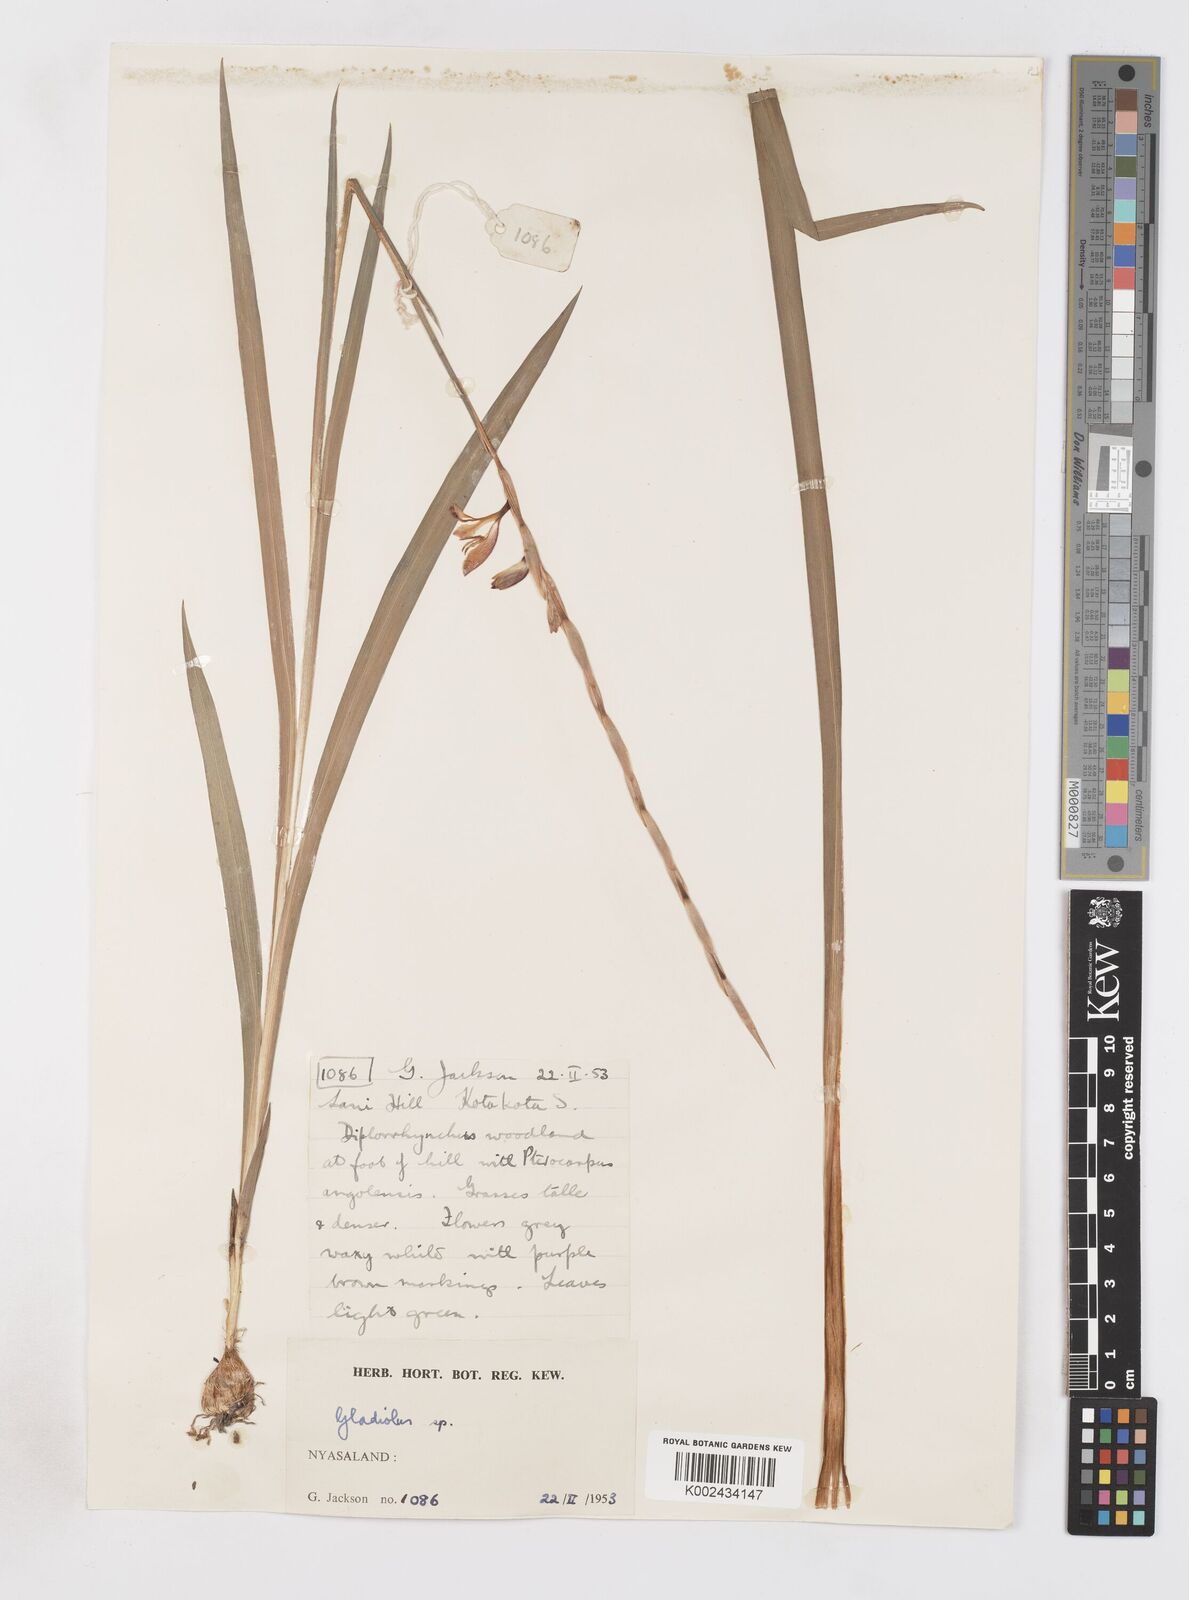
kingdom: Plantae
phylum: Tracheophyta
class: Liliopsida
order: Asparagales
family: Iridaceae
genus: Gladiolus
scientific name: Gladiolus gregarius
